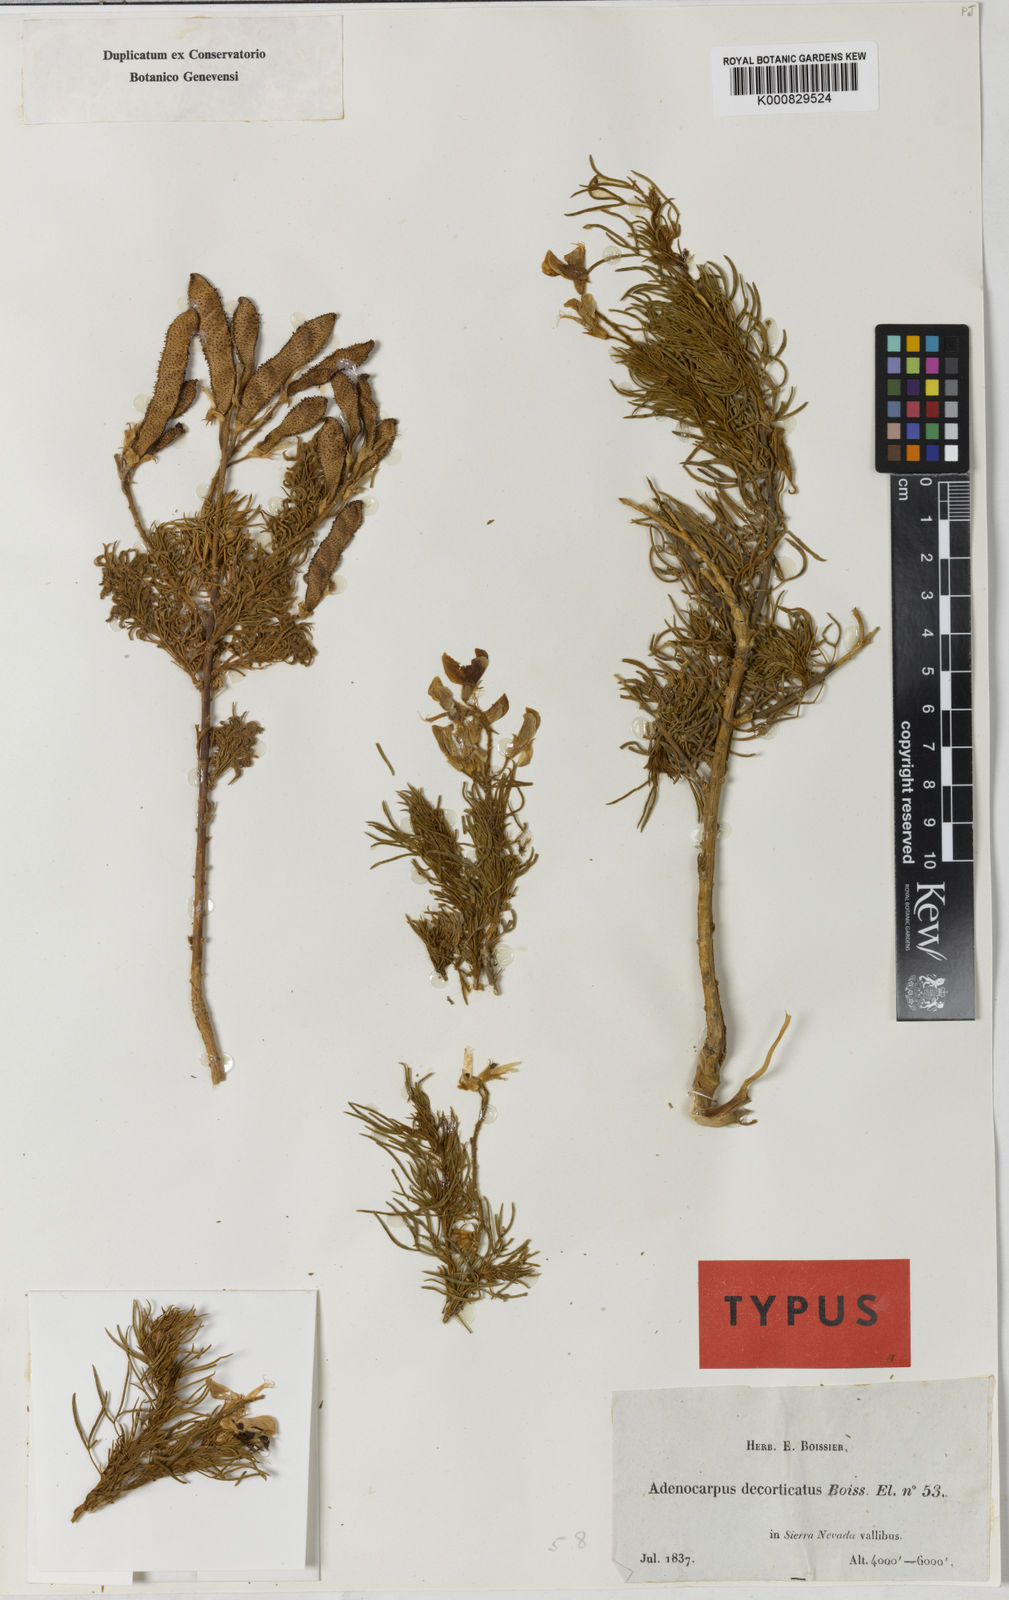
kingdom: Plantae
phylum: Tracheophyta
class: Magnoliopsida
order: Fabales
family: Fabaceae
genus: Adenocarpus
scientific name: Adenocarpus decorticans
